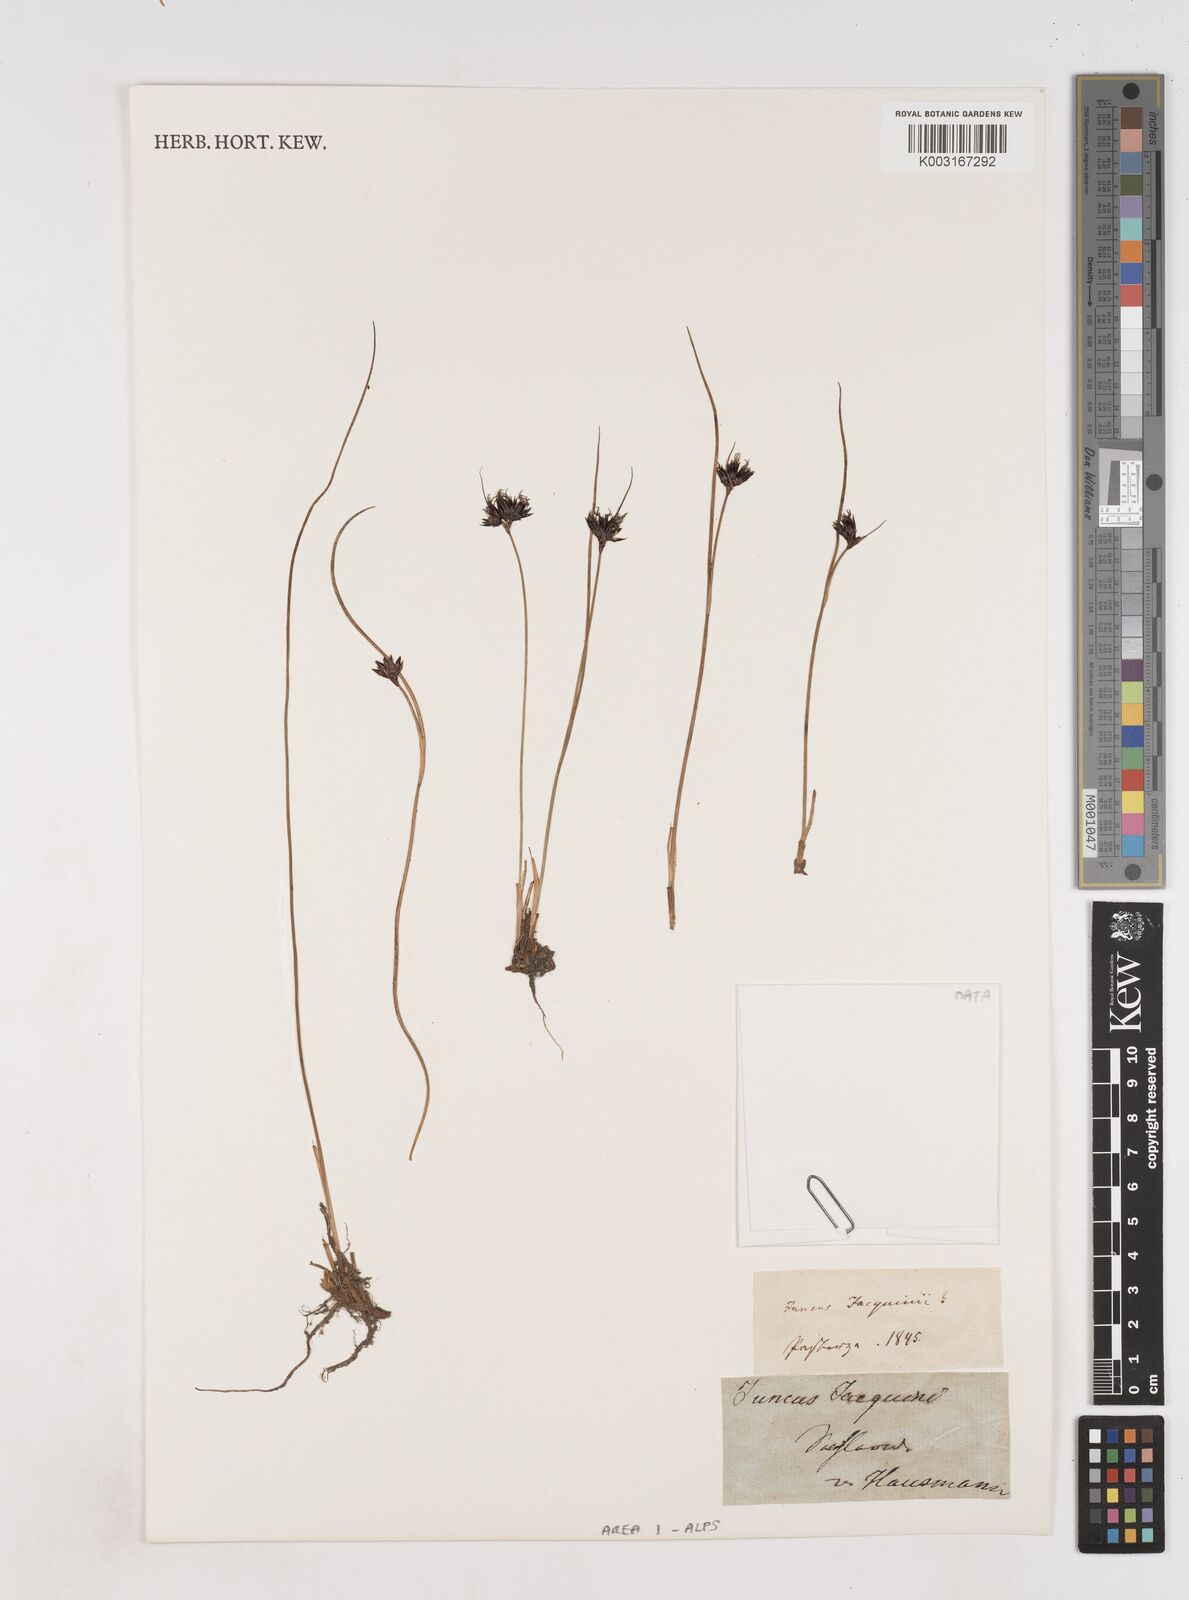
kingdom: Plantae
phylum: Tracheophyta
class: Liliopsida
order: Poales
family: Juncaceae
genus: Juncus
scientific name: Juncus jacquinii
